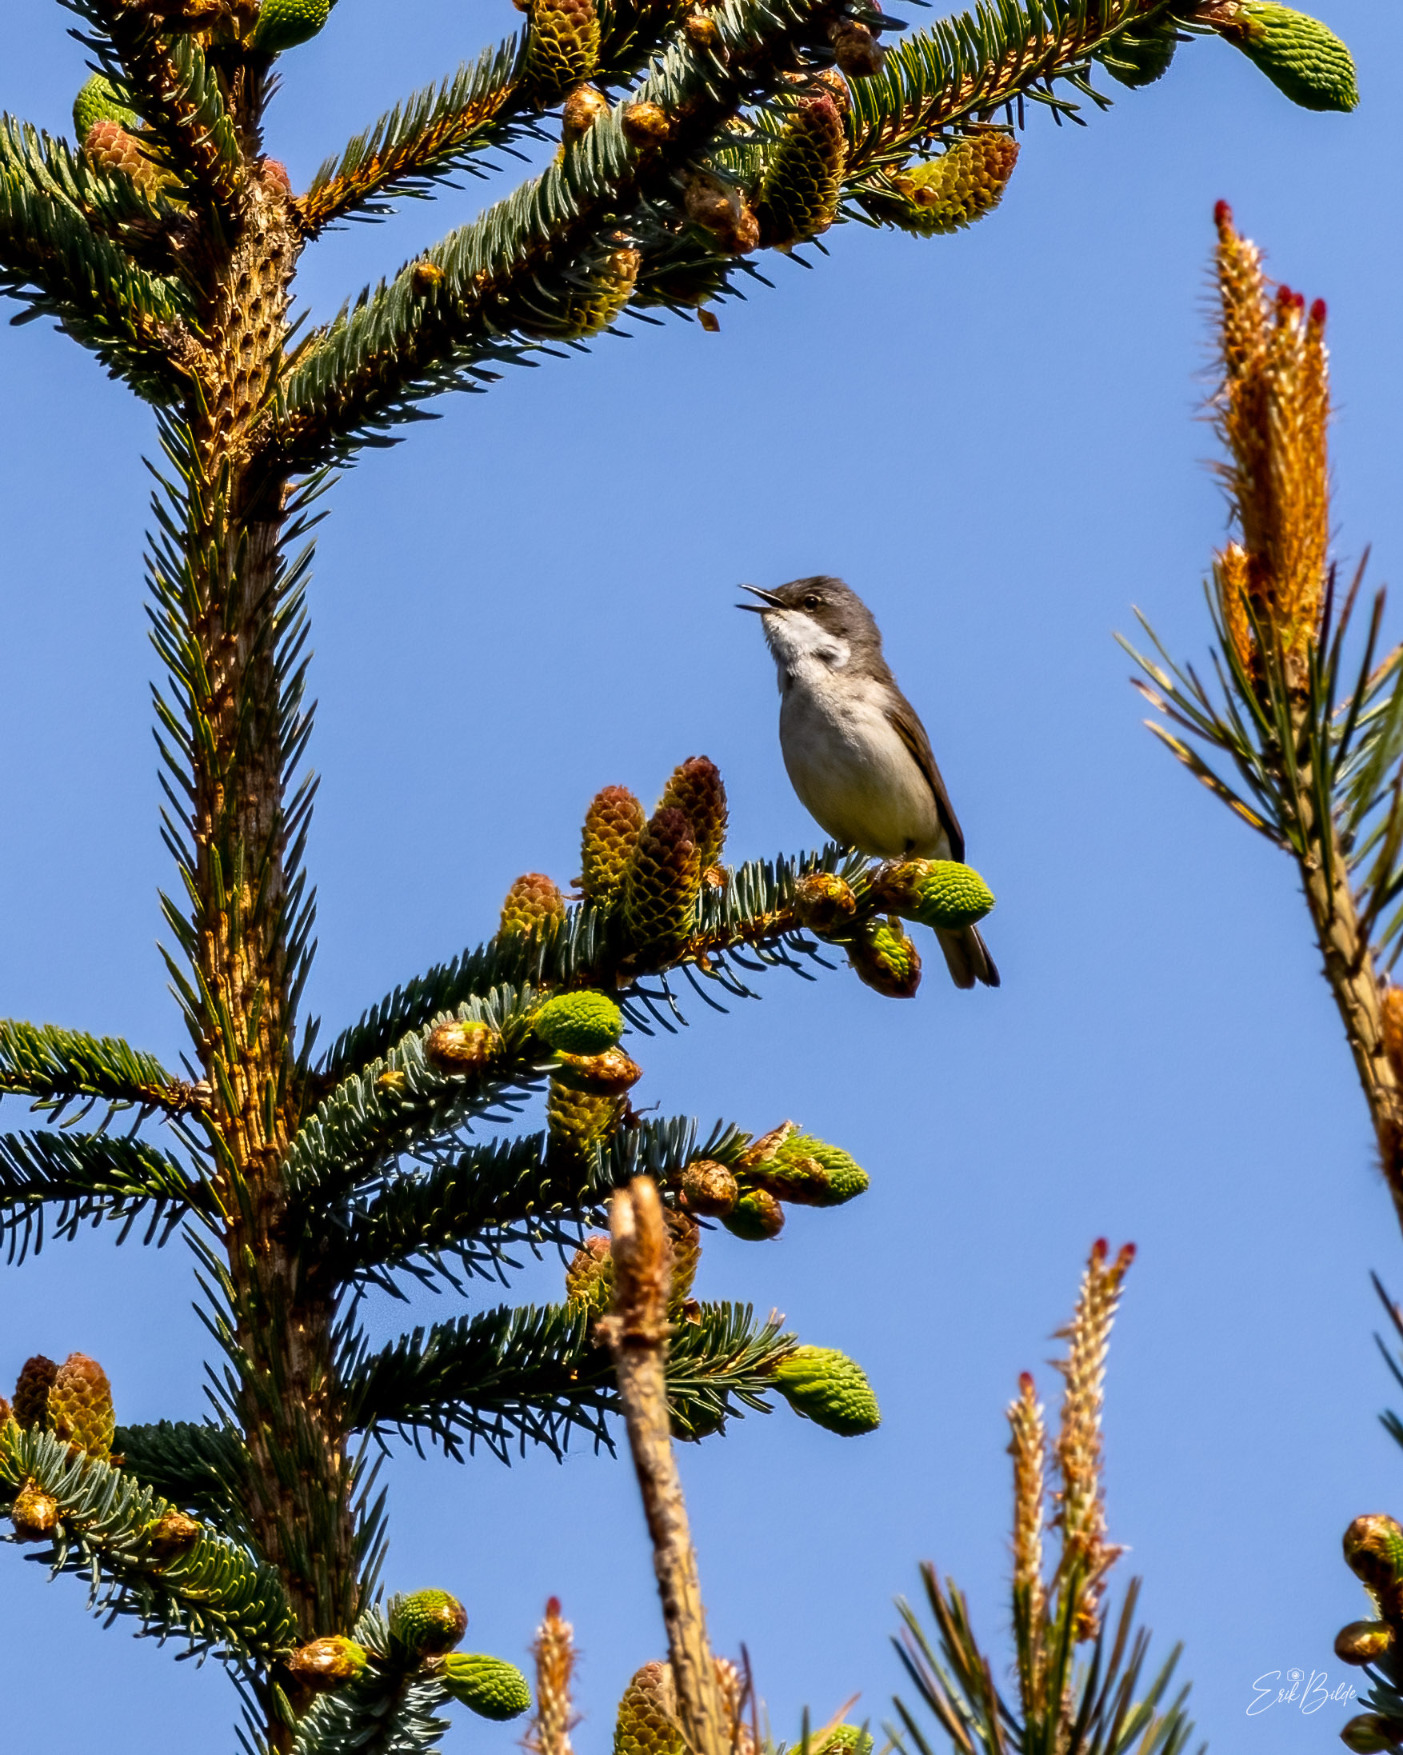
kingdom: Animalia
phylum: Chordata
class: Aves
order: Passeriformes
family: Sylviidae
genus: Sylvia
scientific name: Sylvia curruca
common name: Gærdesanger
